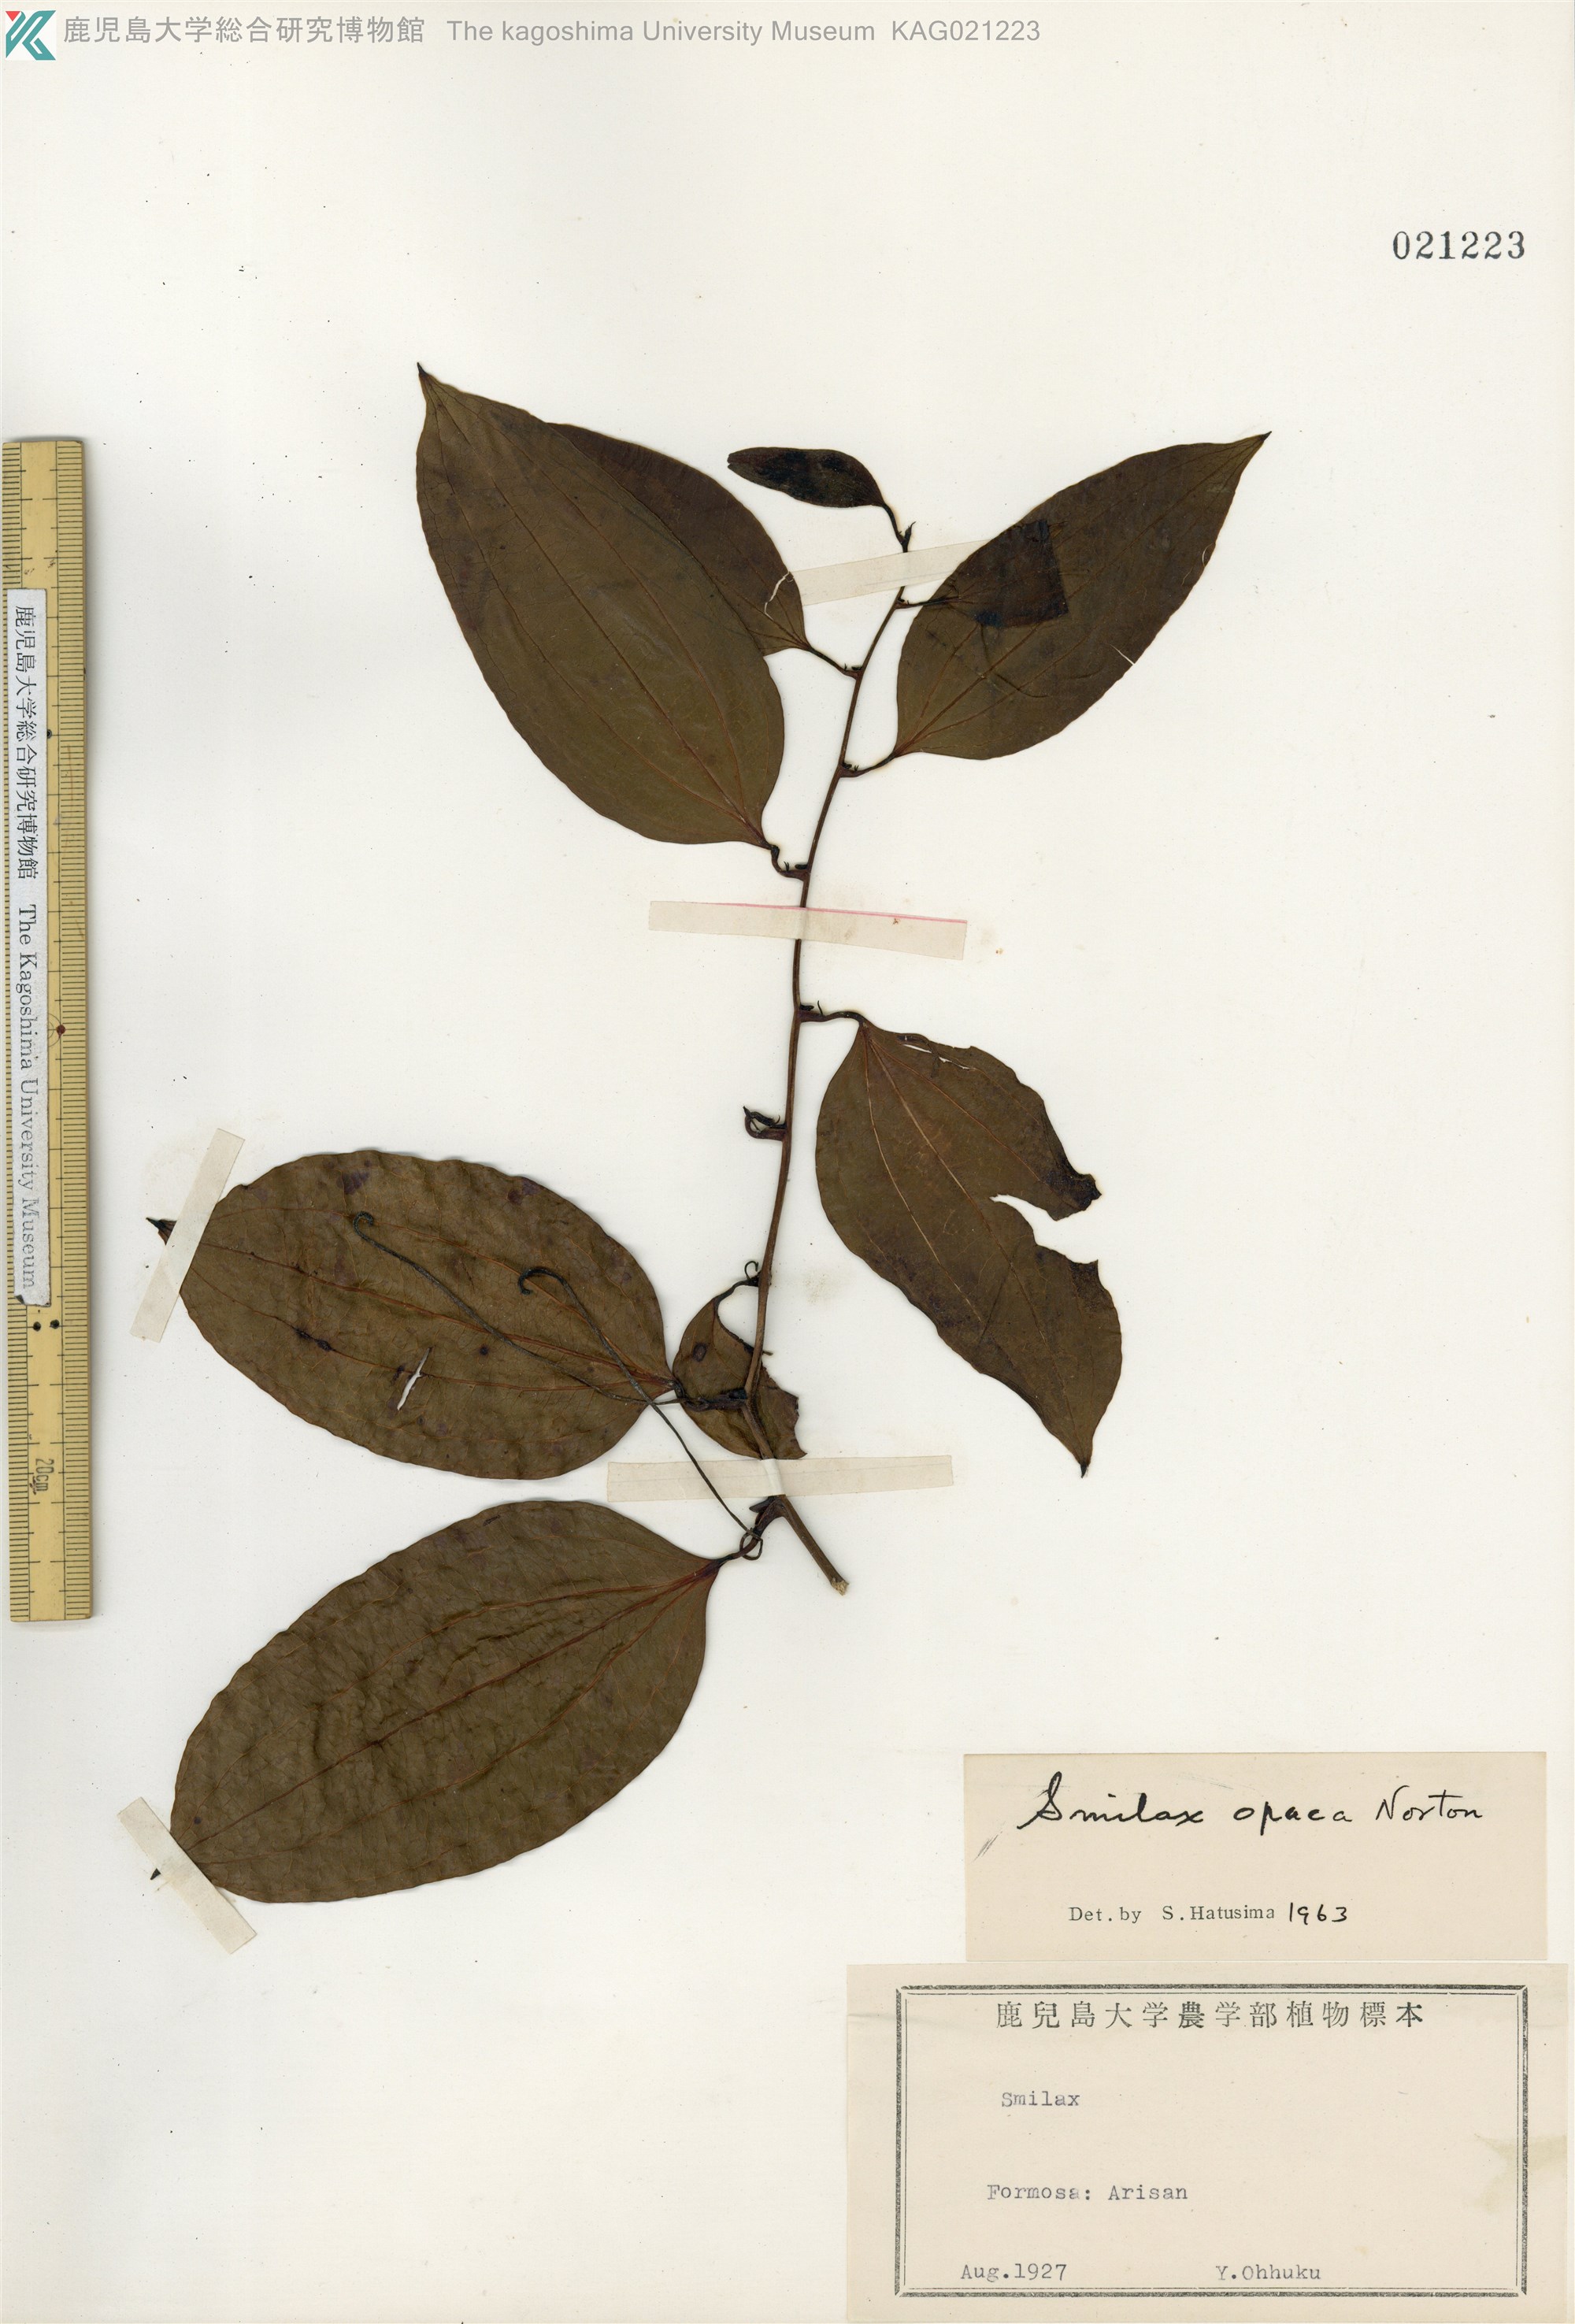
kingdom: Plantae
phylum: Tracheophyta
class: Liliopsida
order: Liliales
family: Smilacaceae
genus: Smilax
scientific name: Smilax laevis
